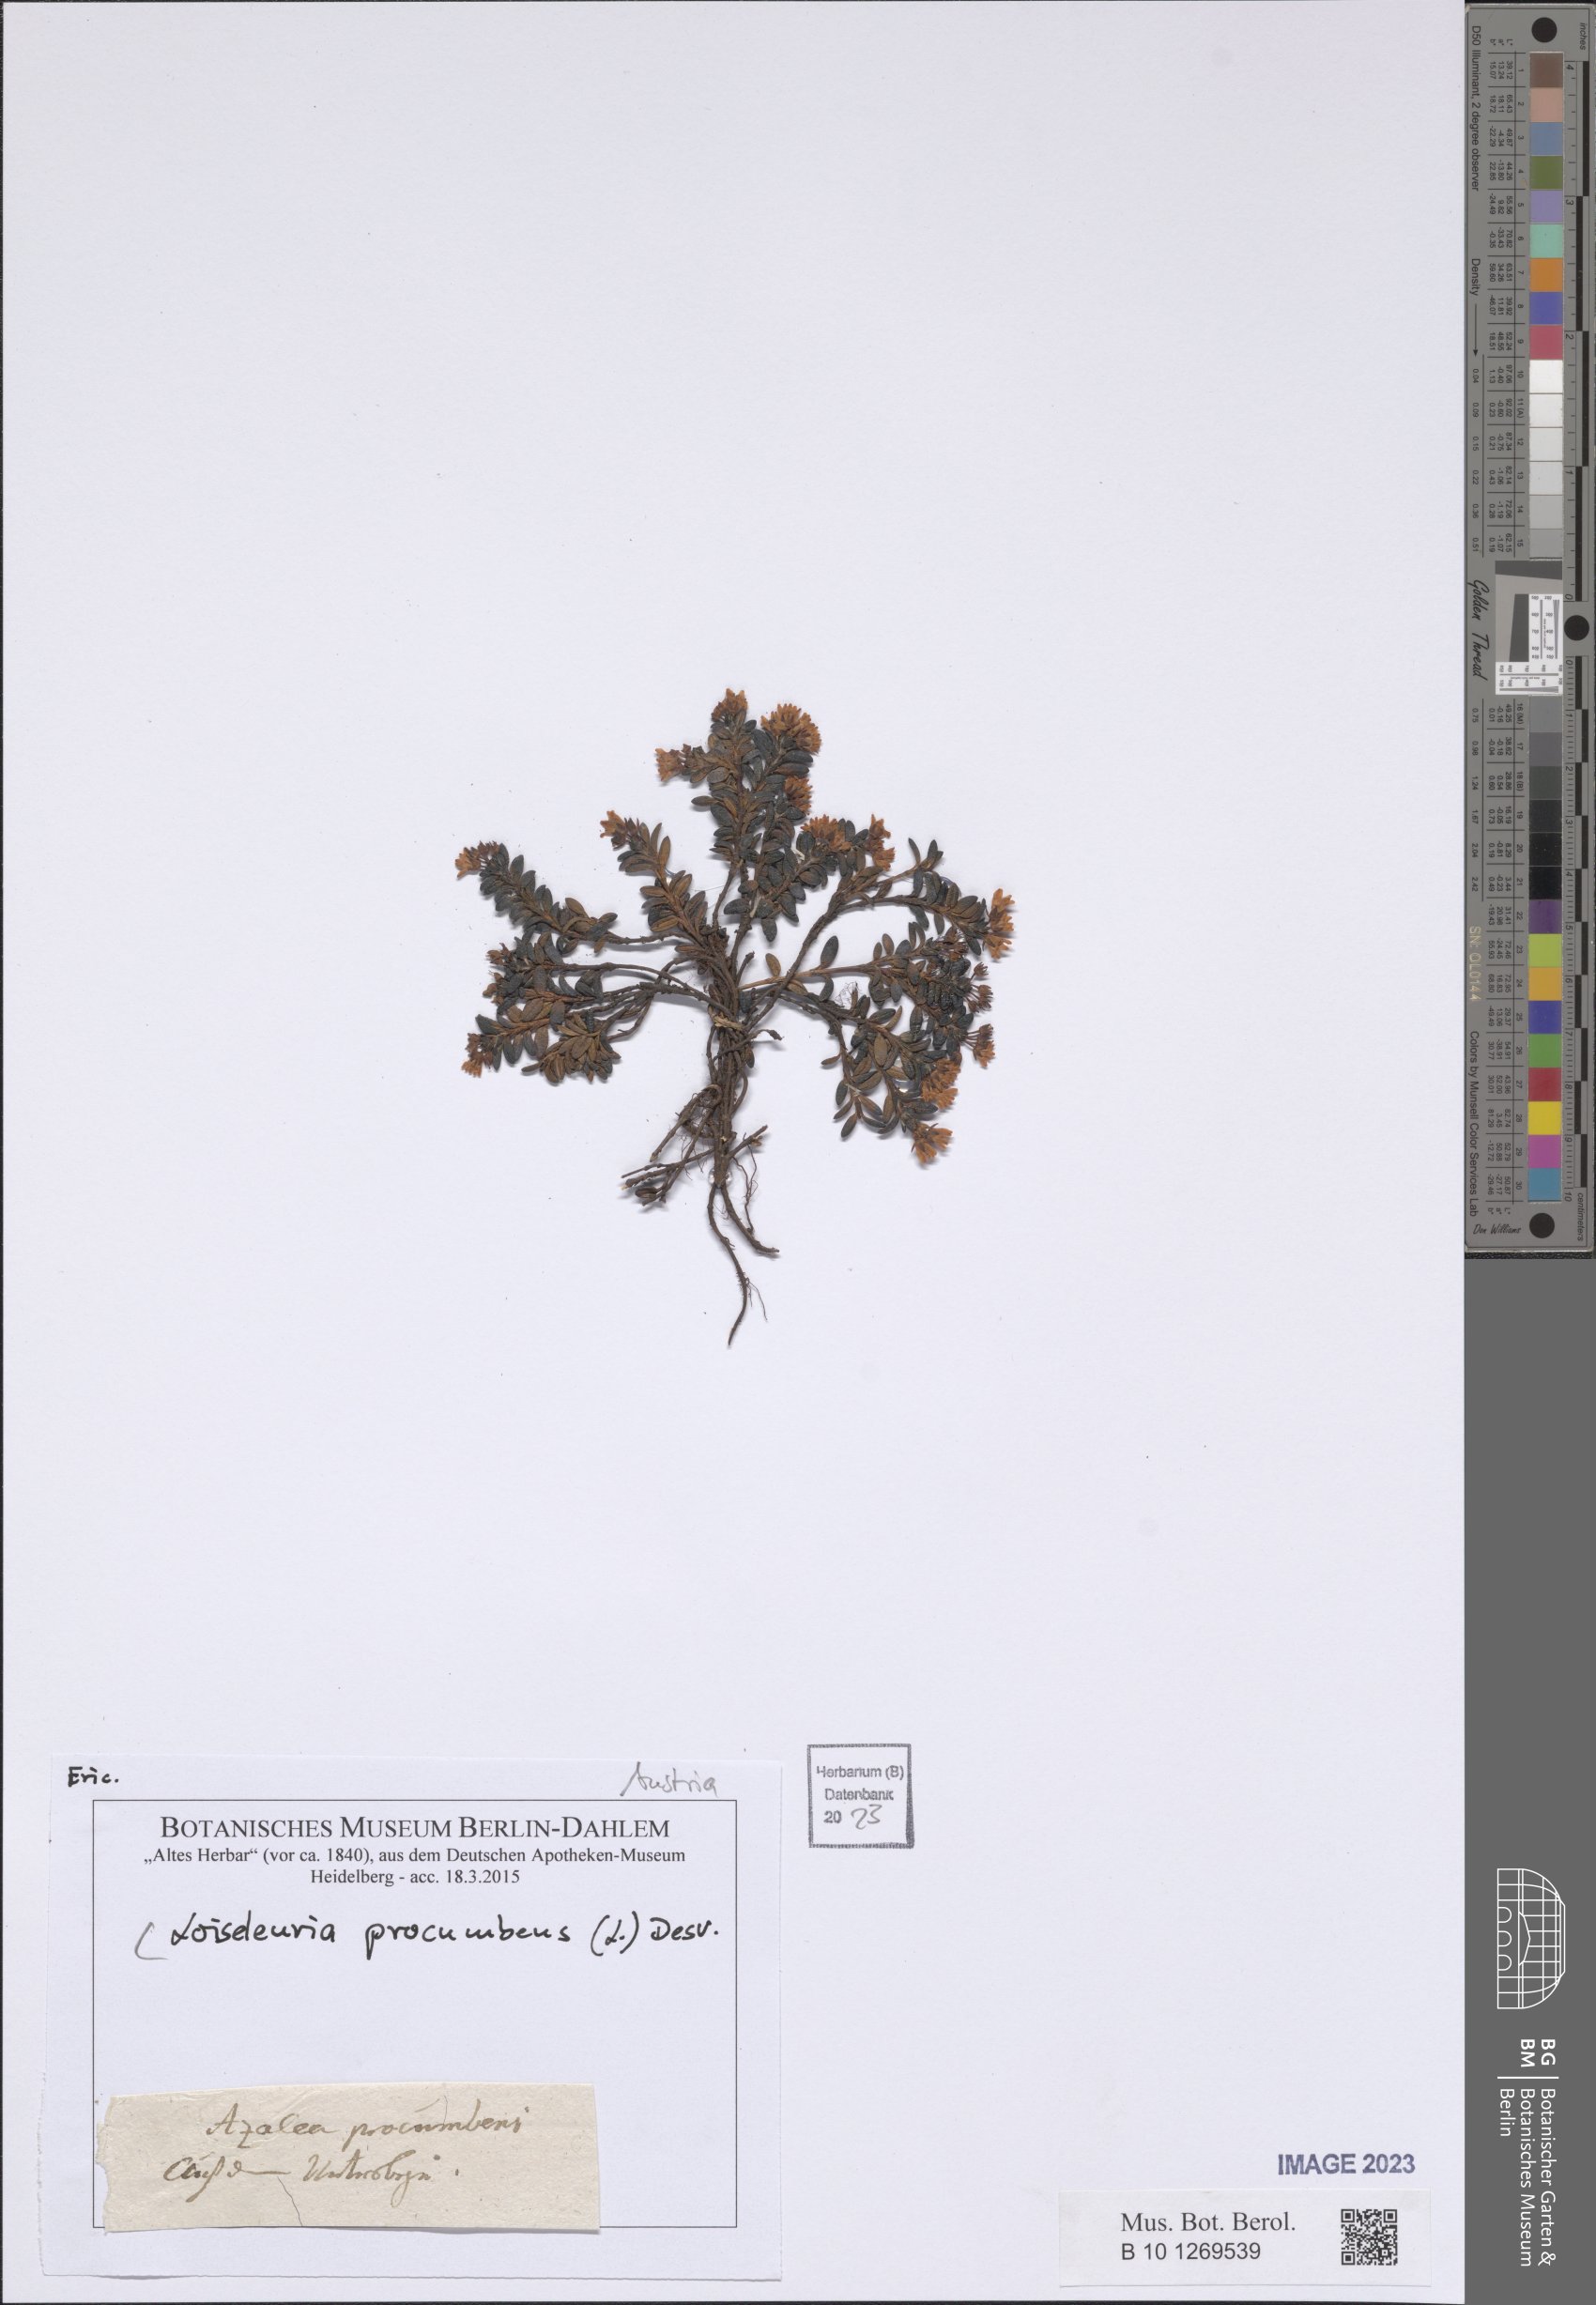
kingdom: Plantae
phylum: Tracheophyta
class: Magnoliopsida
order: Ericales
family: Ericaceae
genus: Kalmia
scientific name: Kalmia procumbens
